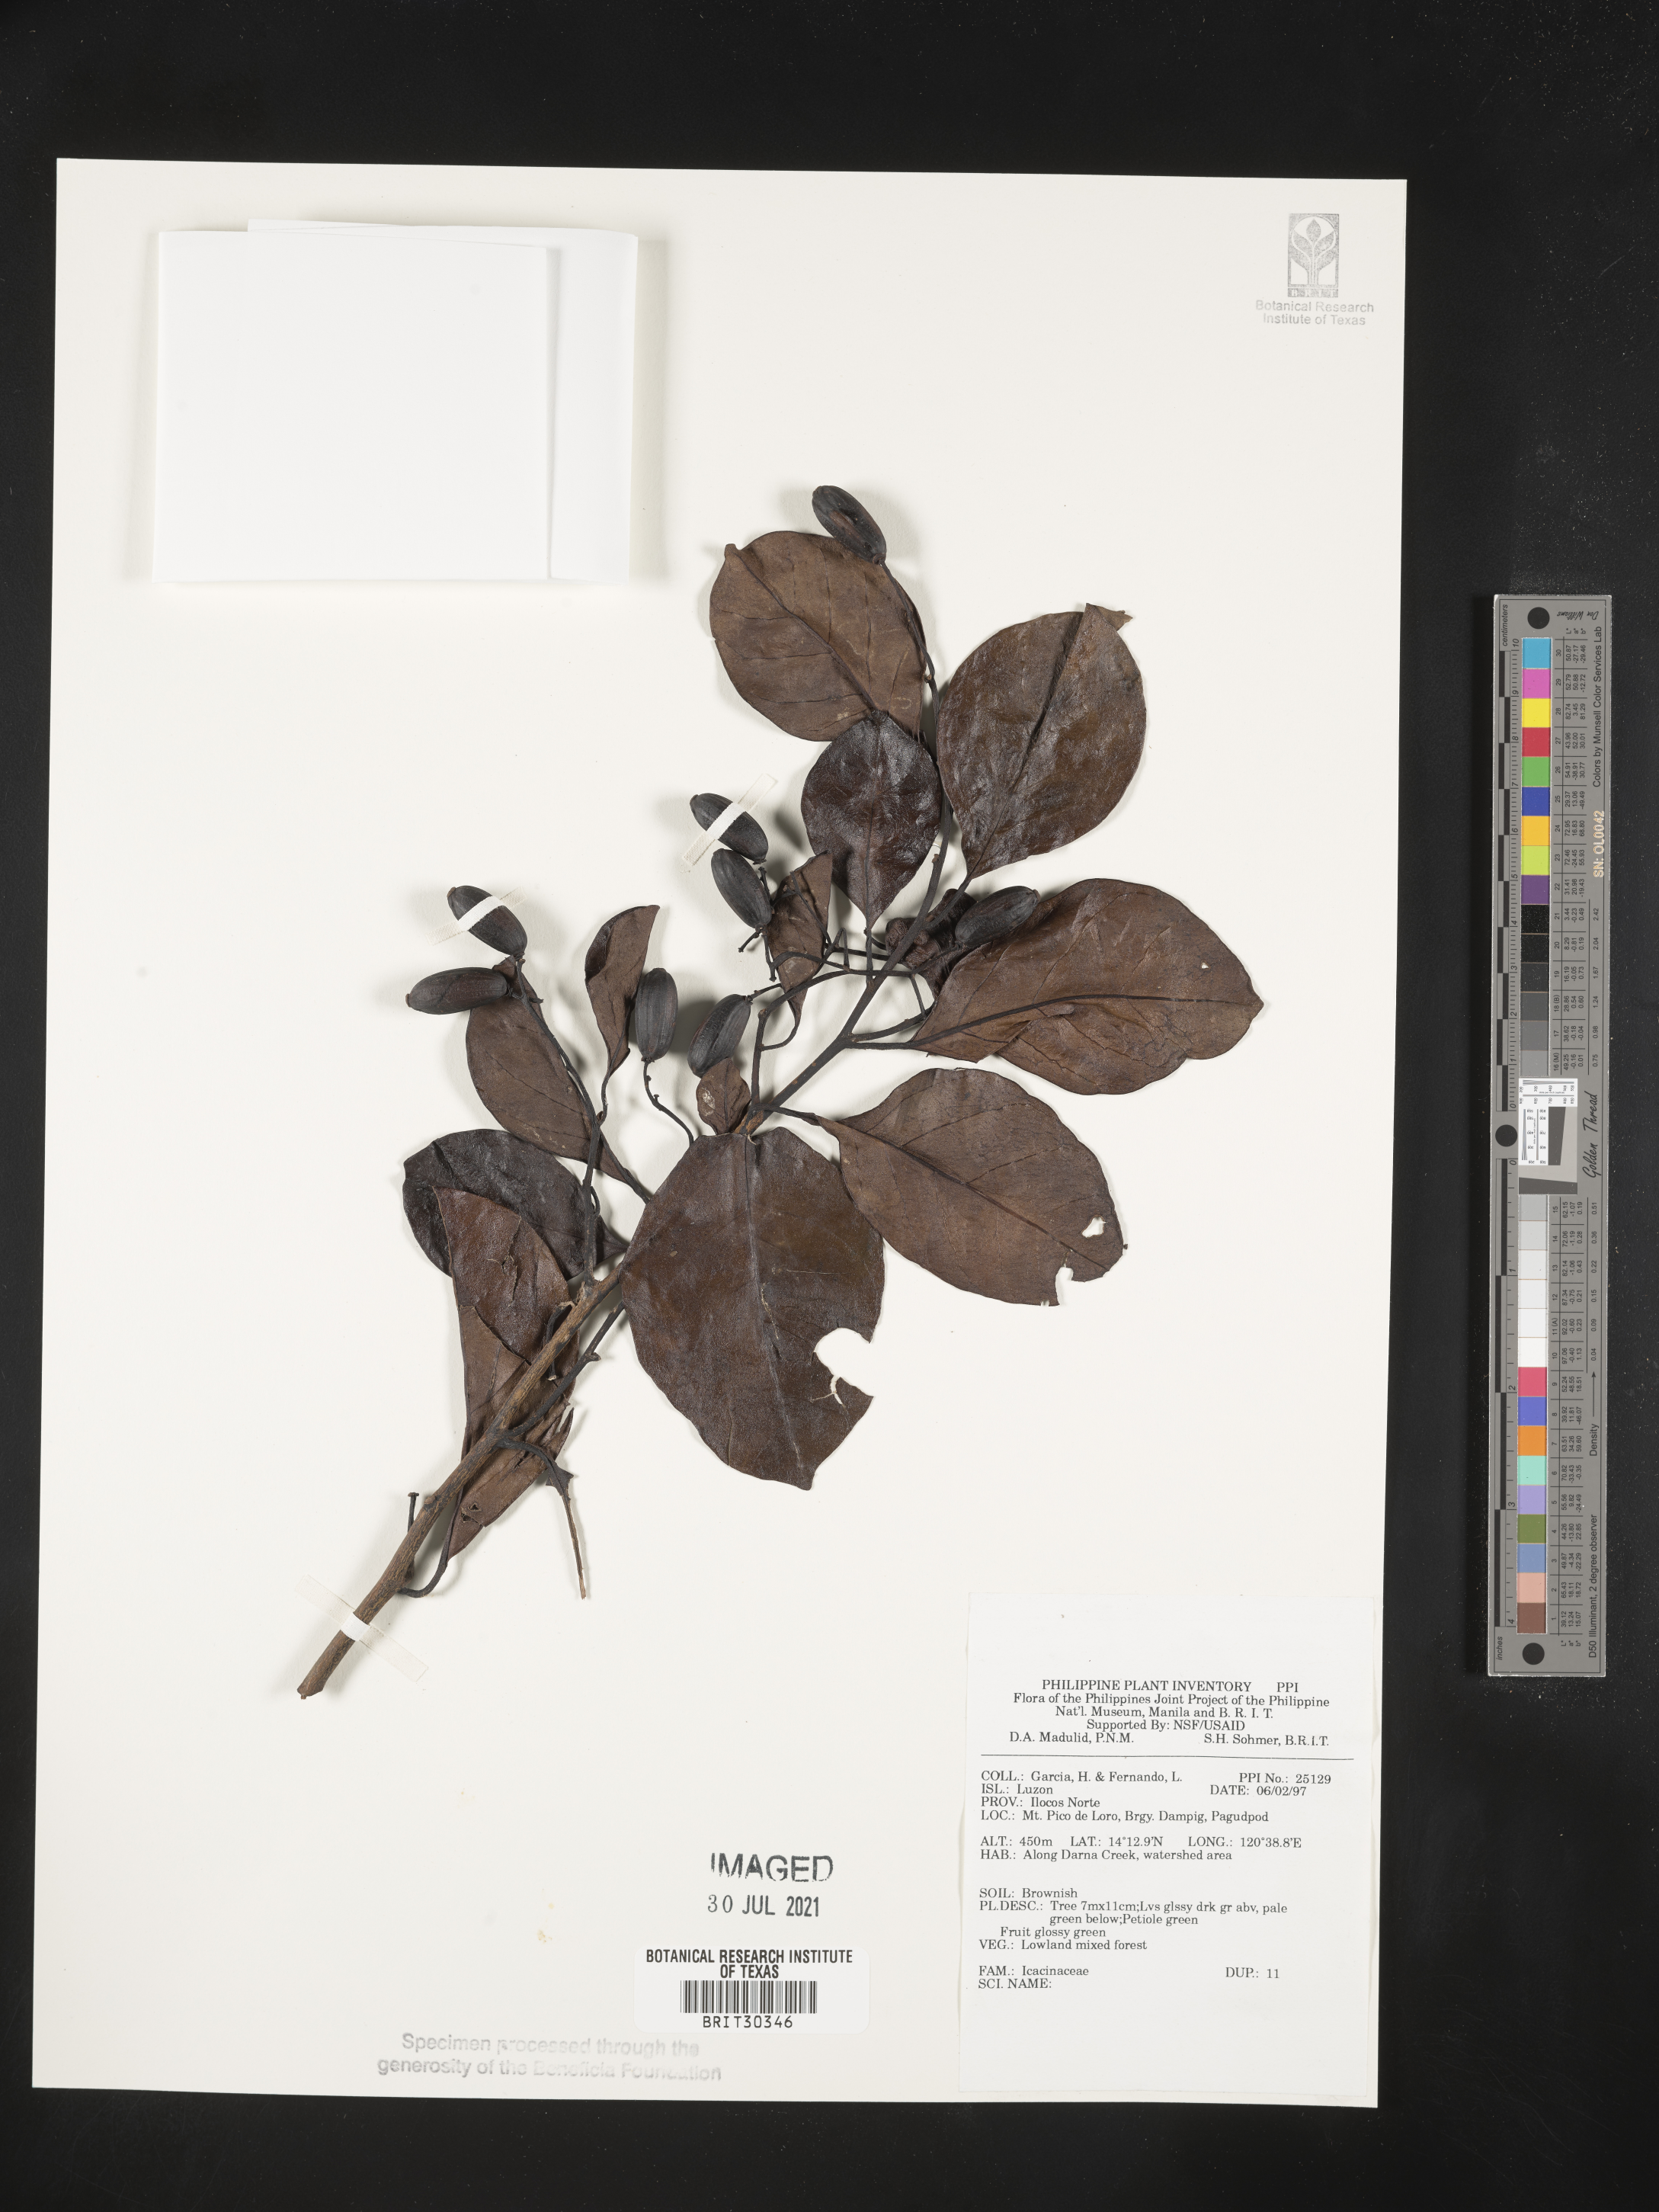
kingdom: Plantae
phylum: Tracheophyta
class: Magnoliopsida
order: Icacinales
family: Icacinaceae
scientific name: Icacinaceae
